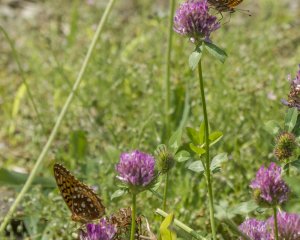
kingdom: Animalia
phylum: Arthropoda
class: Insecta
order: Lepidoptera
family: Nymphalidae
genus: Speyeria
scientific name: Speyeria atlantis
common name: Atlantis Fritillary
